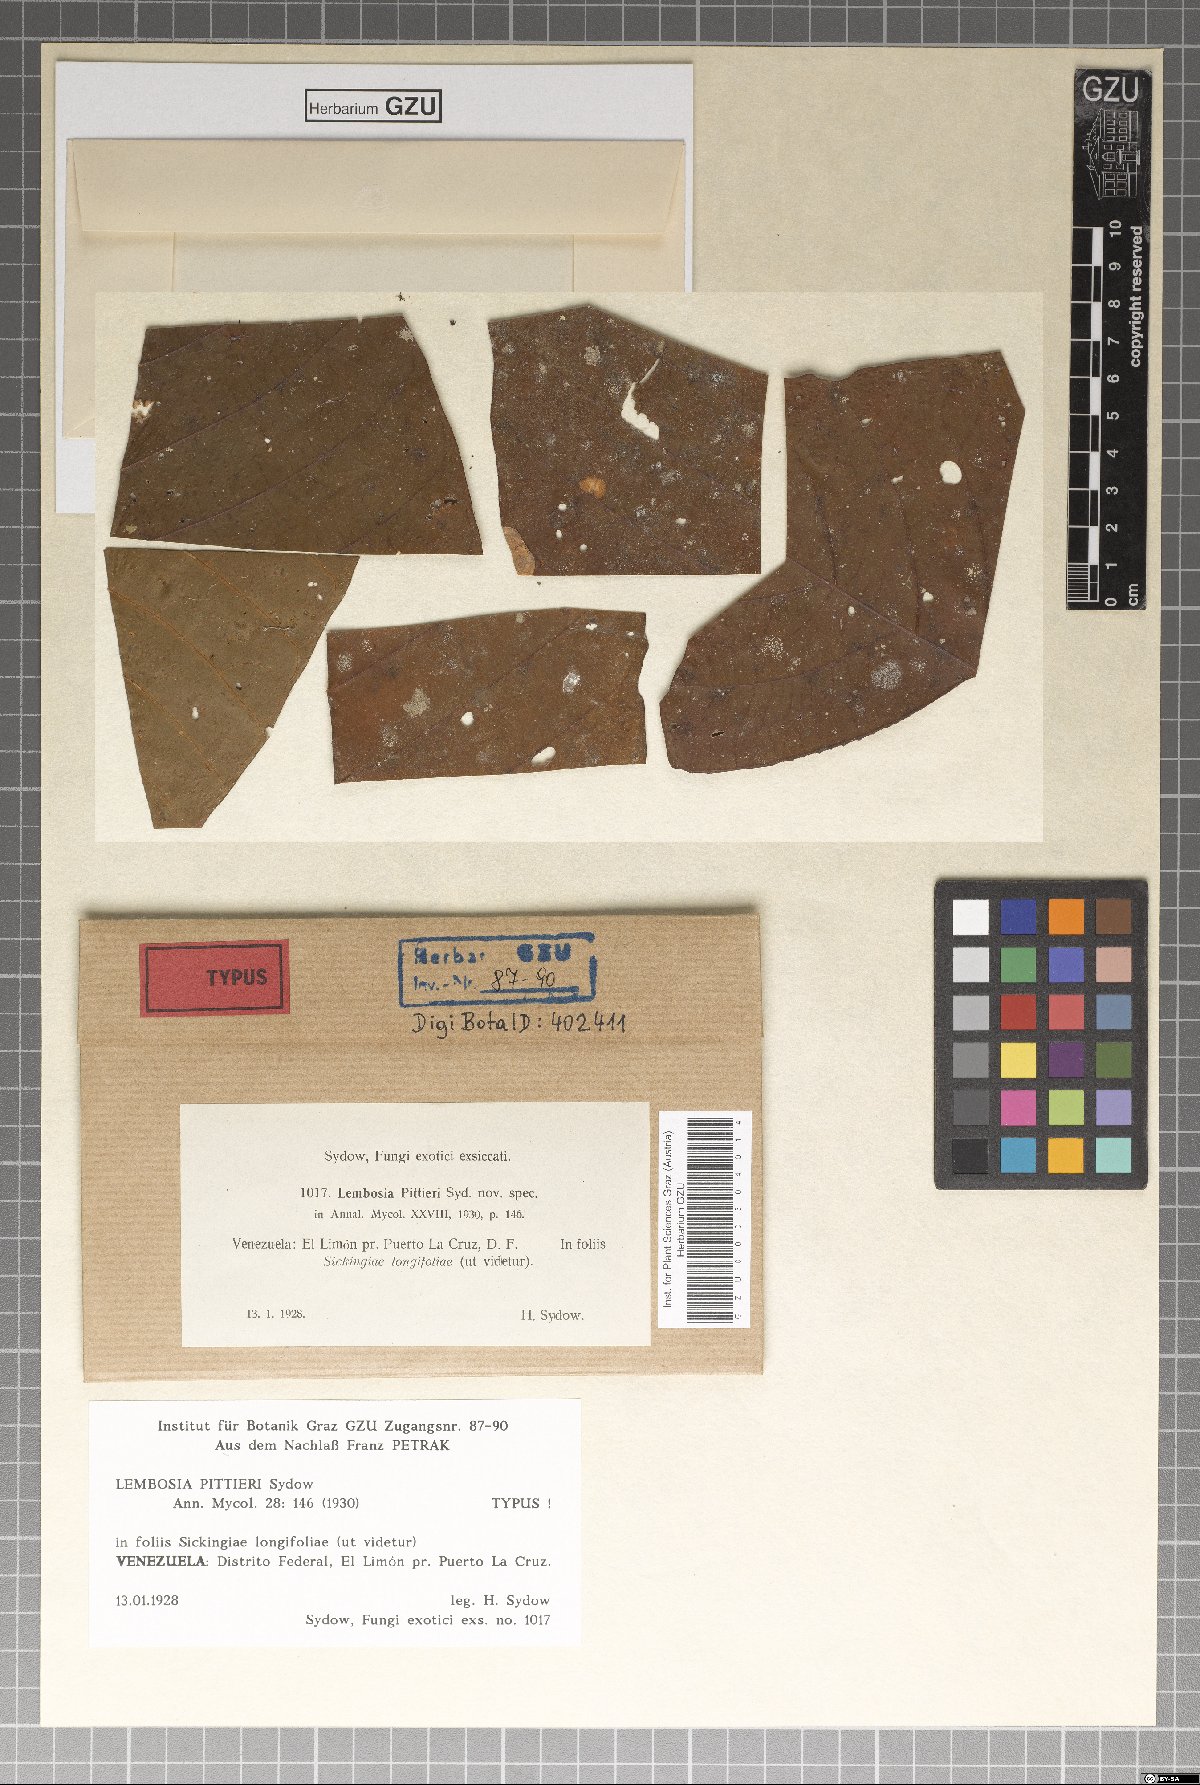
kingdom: Fungi
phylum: Ascomycota
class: Dothideomycetes
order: Asterinales
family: Asterinaceae
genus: Lembosia
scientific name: Lembosia pittieri
